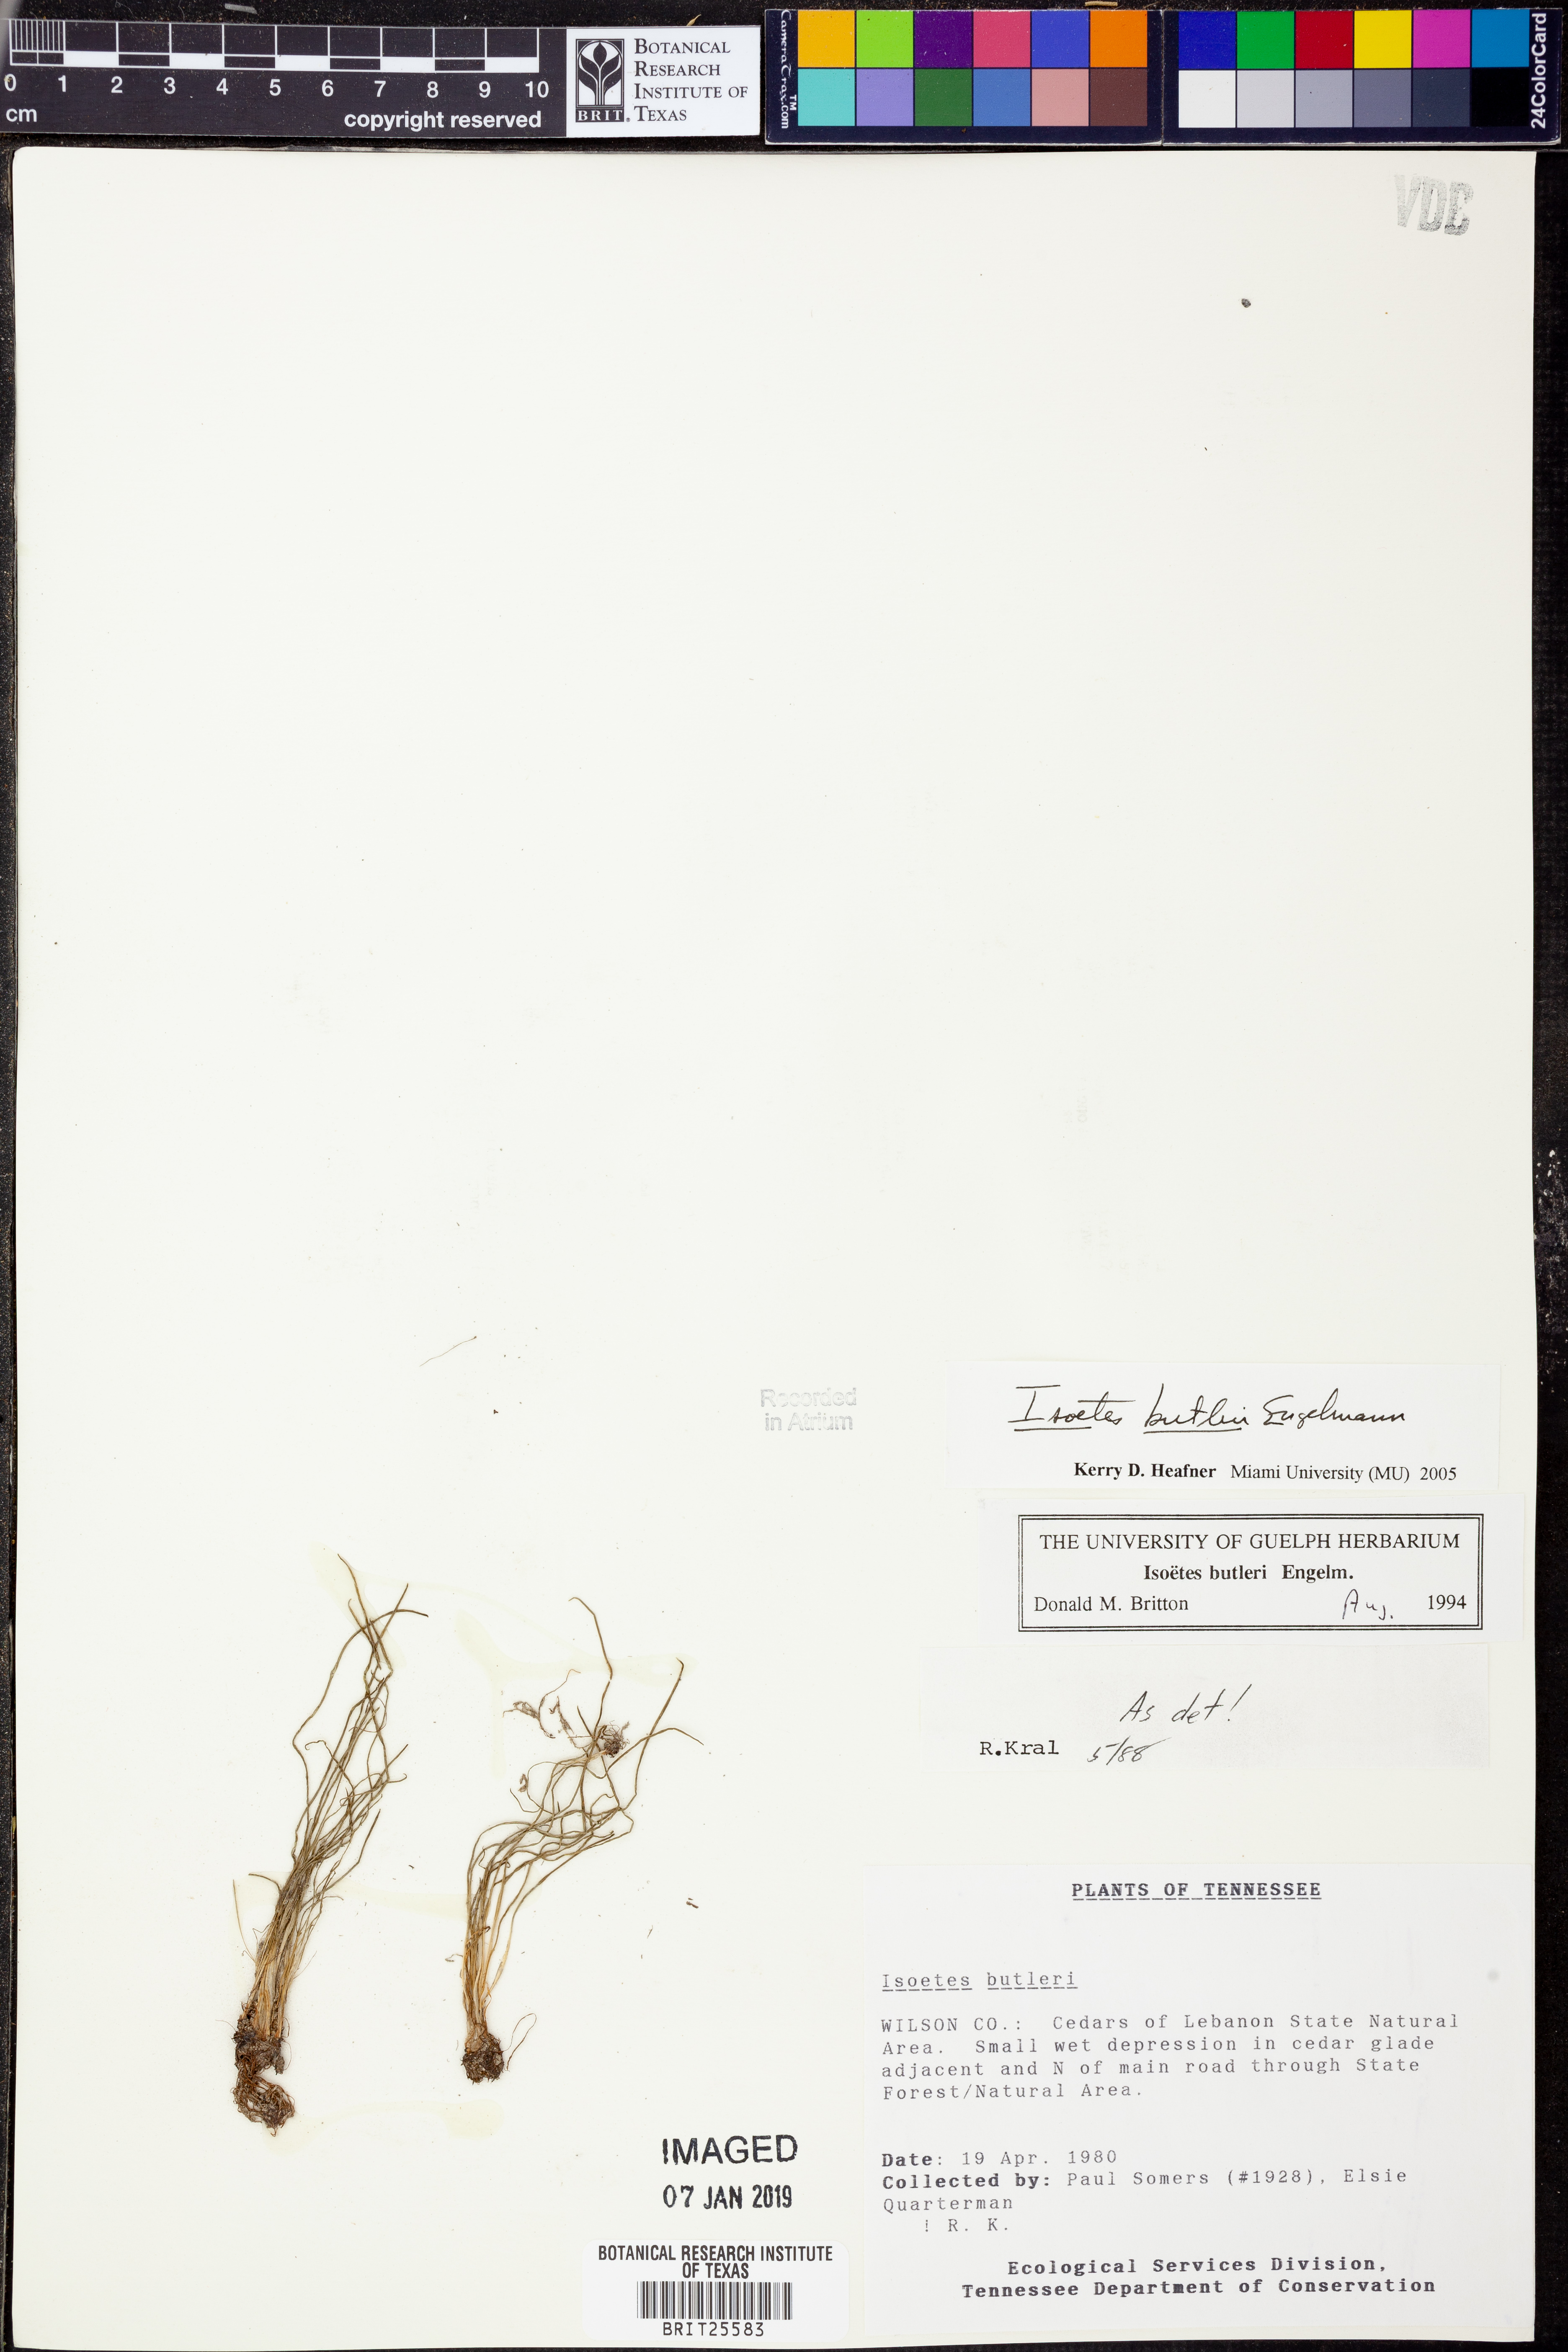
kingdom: Plantae
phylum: Tracheophyta
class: Lycopodiopsida
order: Isoetales
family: Isoetaceae
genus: Isoetes
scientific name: Isoetes butleri
